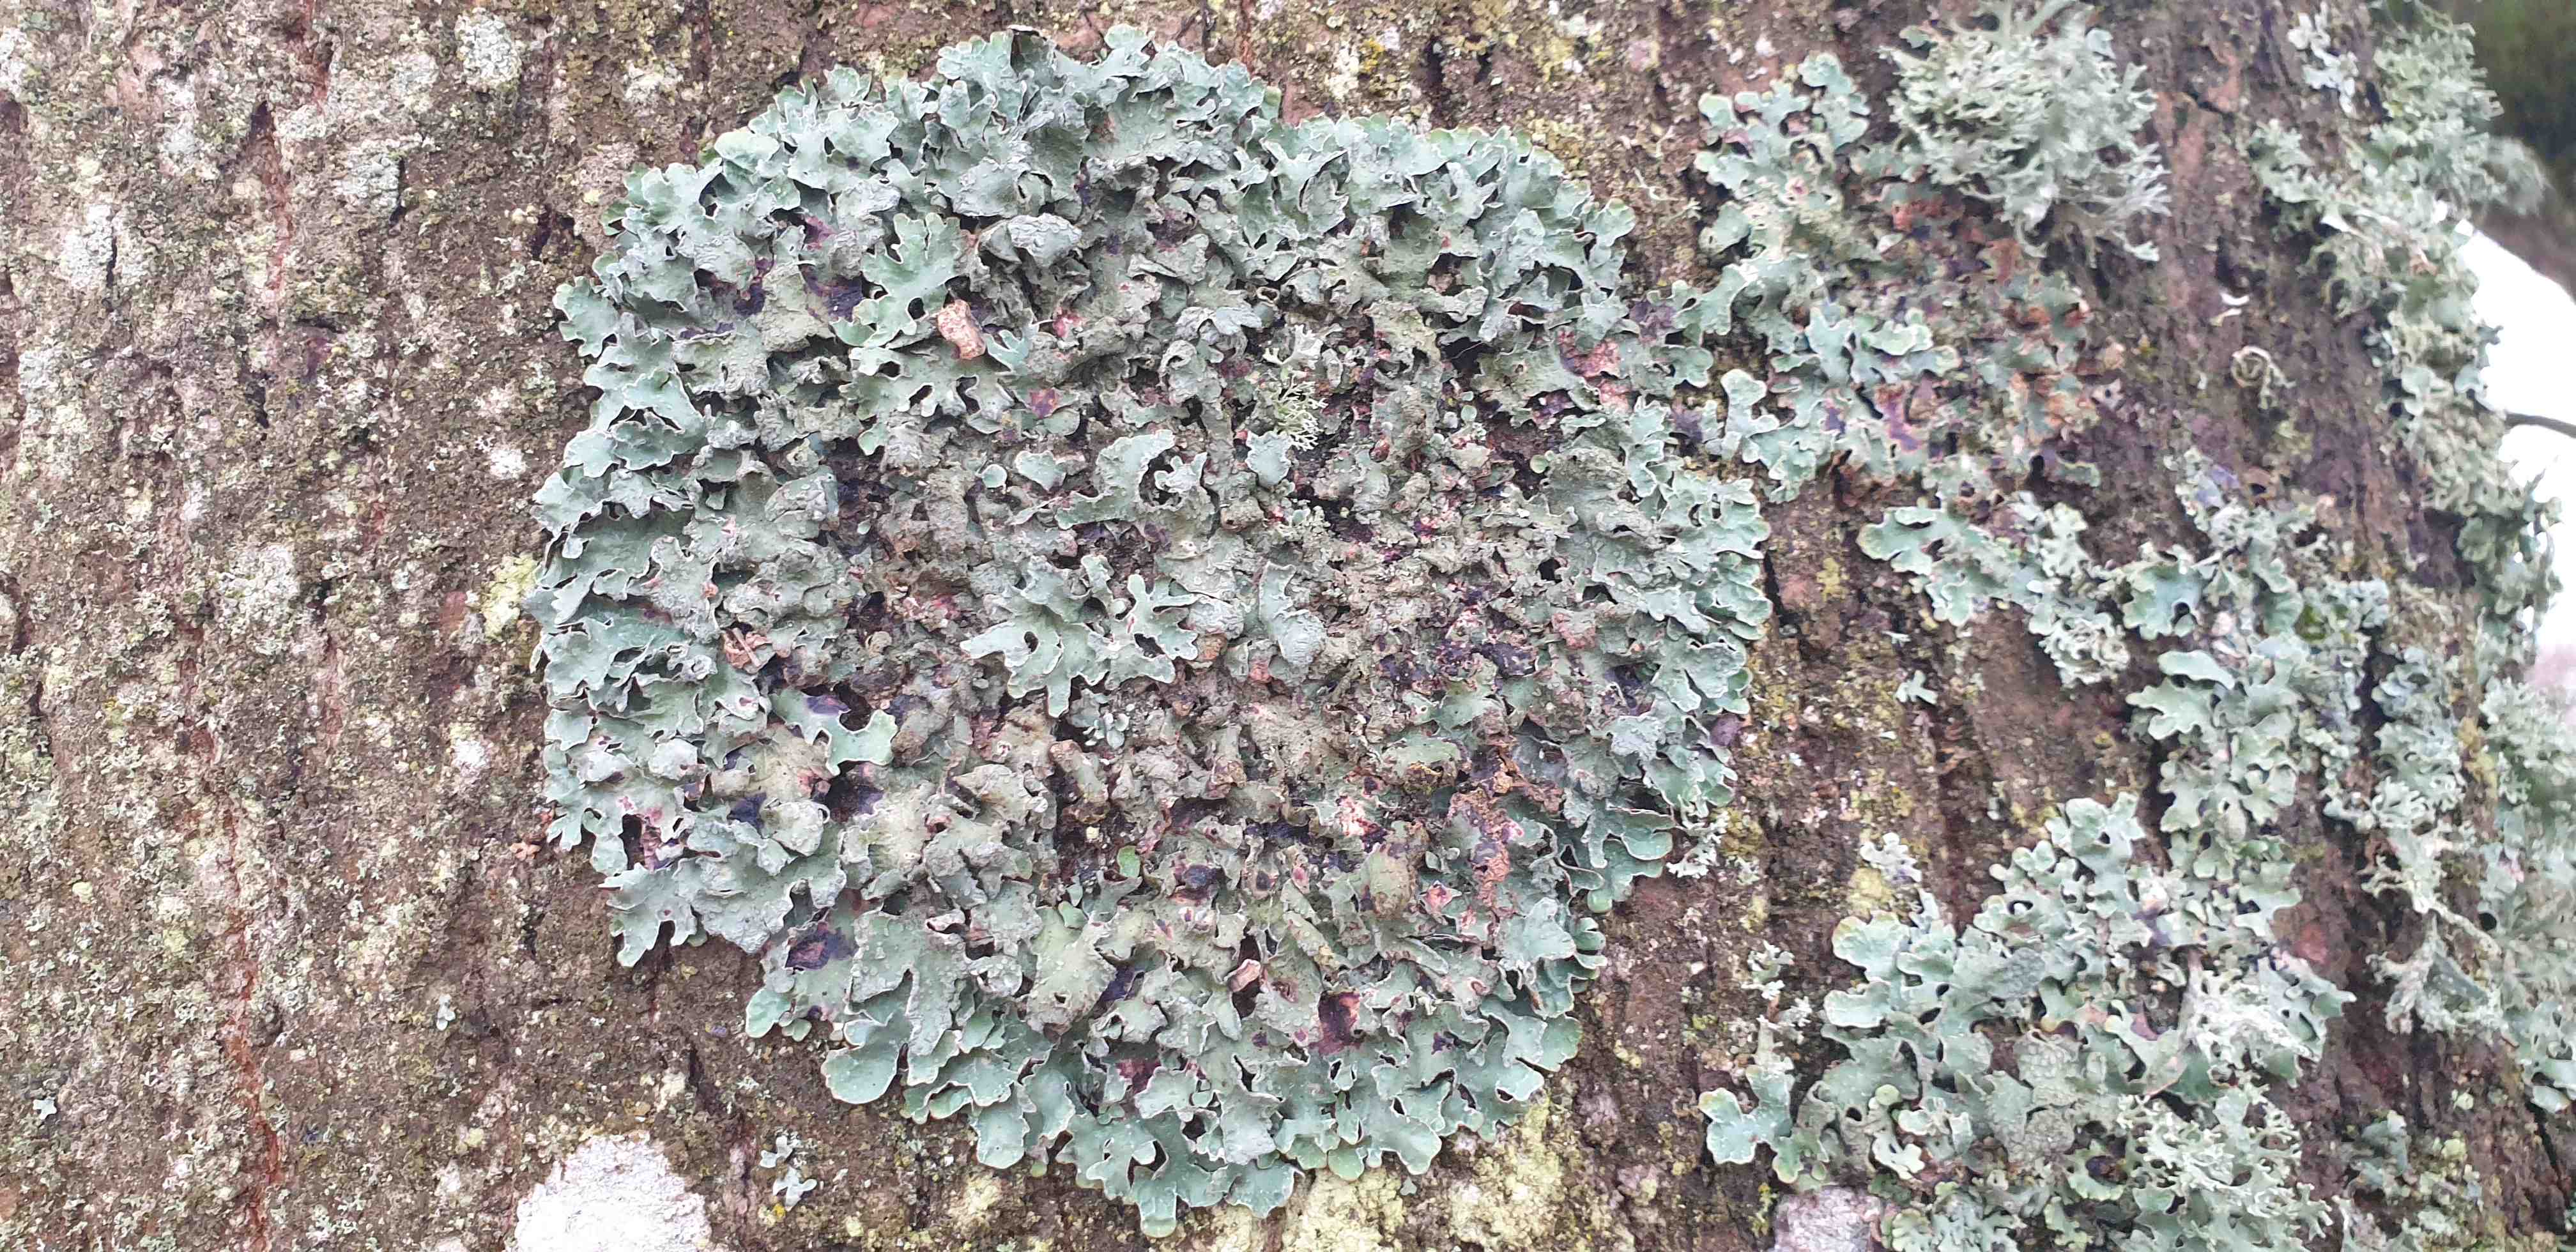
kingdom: Fungi
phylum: Ascomycota
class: Lecanoromycetes
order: Lecanorales
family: Parmeliaceae
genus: Parmelia
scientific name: Parmelia sulcata
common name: rynket skållav
